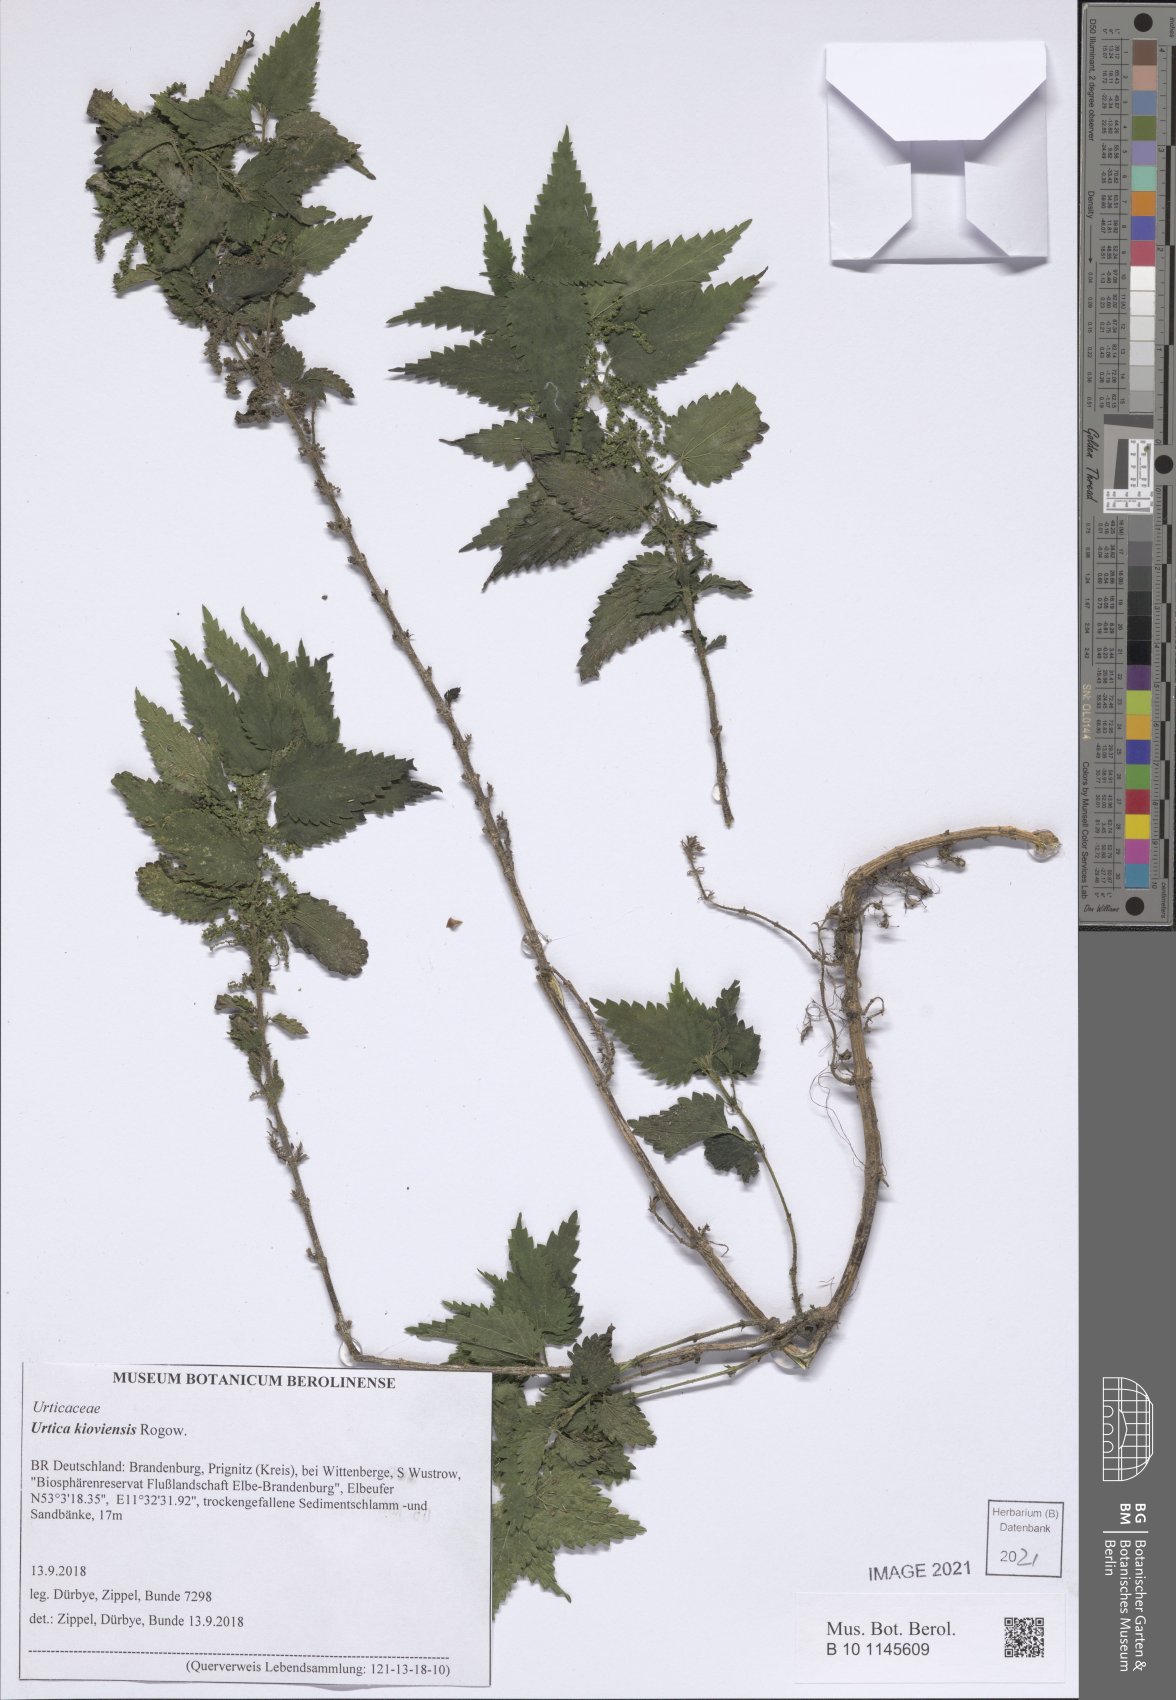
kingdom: Plantae
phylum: Tracheophyta
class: Magnoliopsida
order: Rosales
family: Urticaceae
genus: Urtica
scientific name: Urtica kioviensis
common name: Kievan nettle
